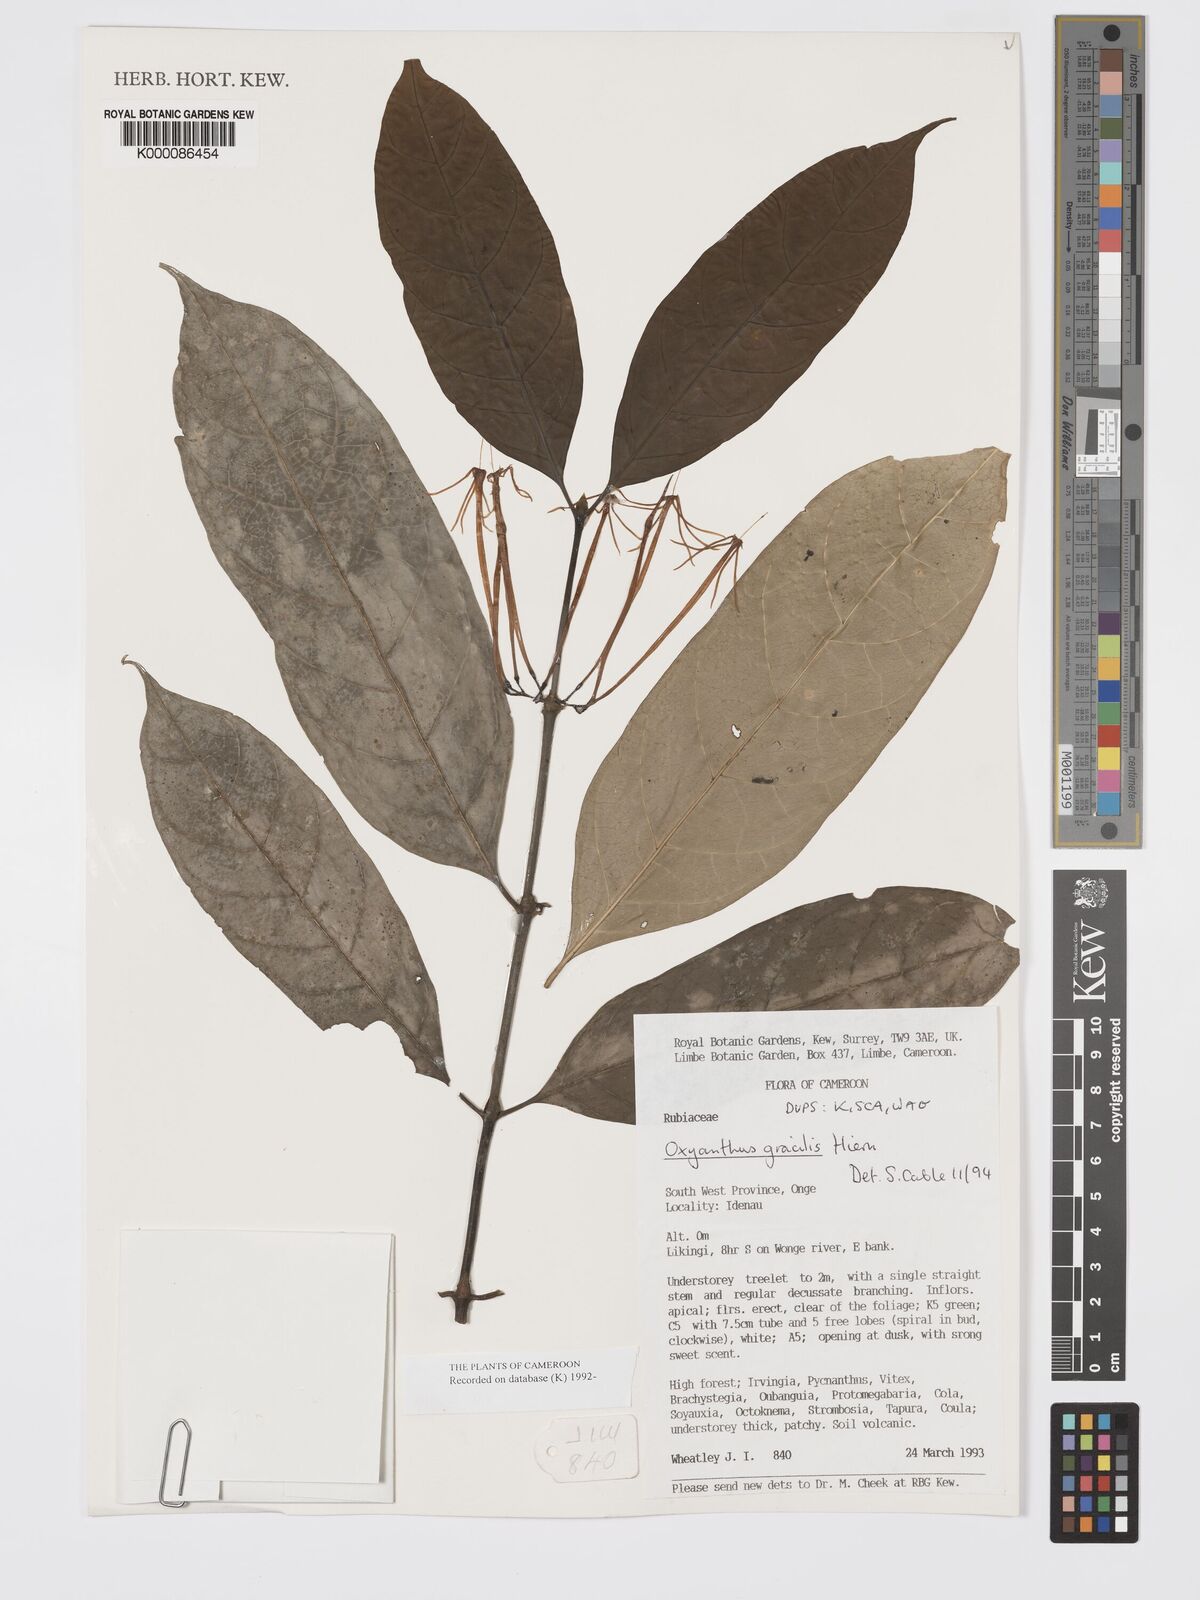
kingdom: Plantae
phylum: Tracheophyta
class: Magnoliopsida
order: Gentianales
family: Rubiaceae
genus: Oxyanthus
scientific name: Oxyanthus gracilis
